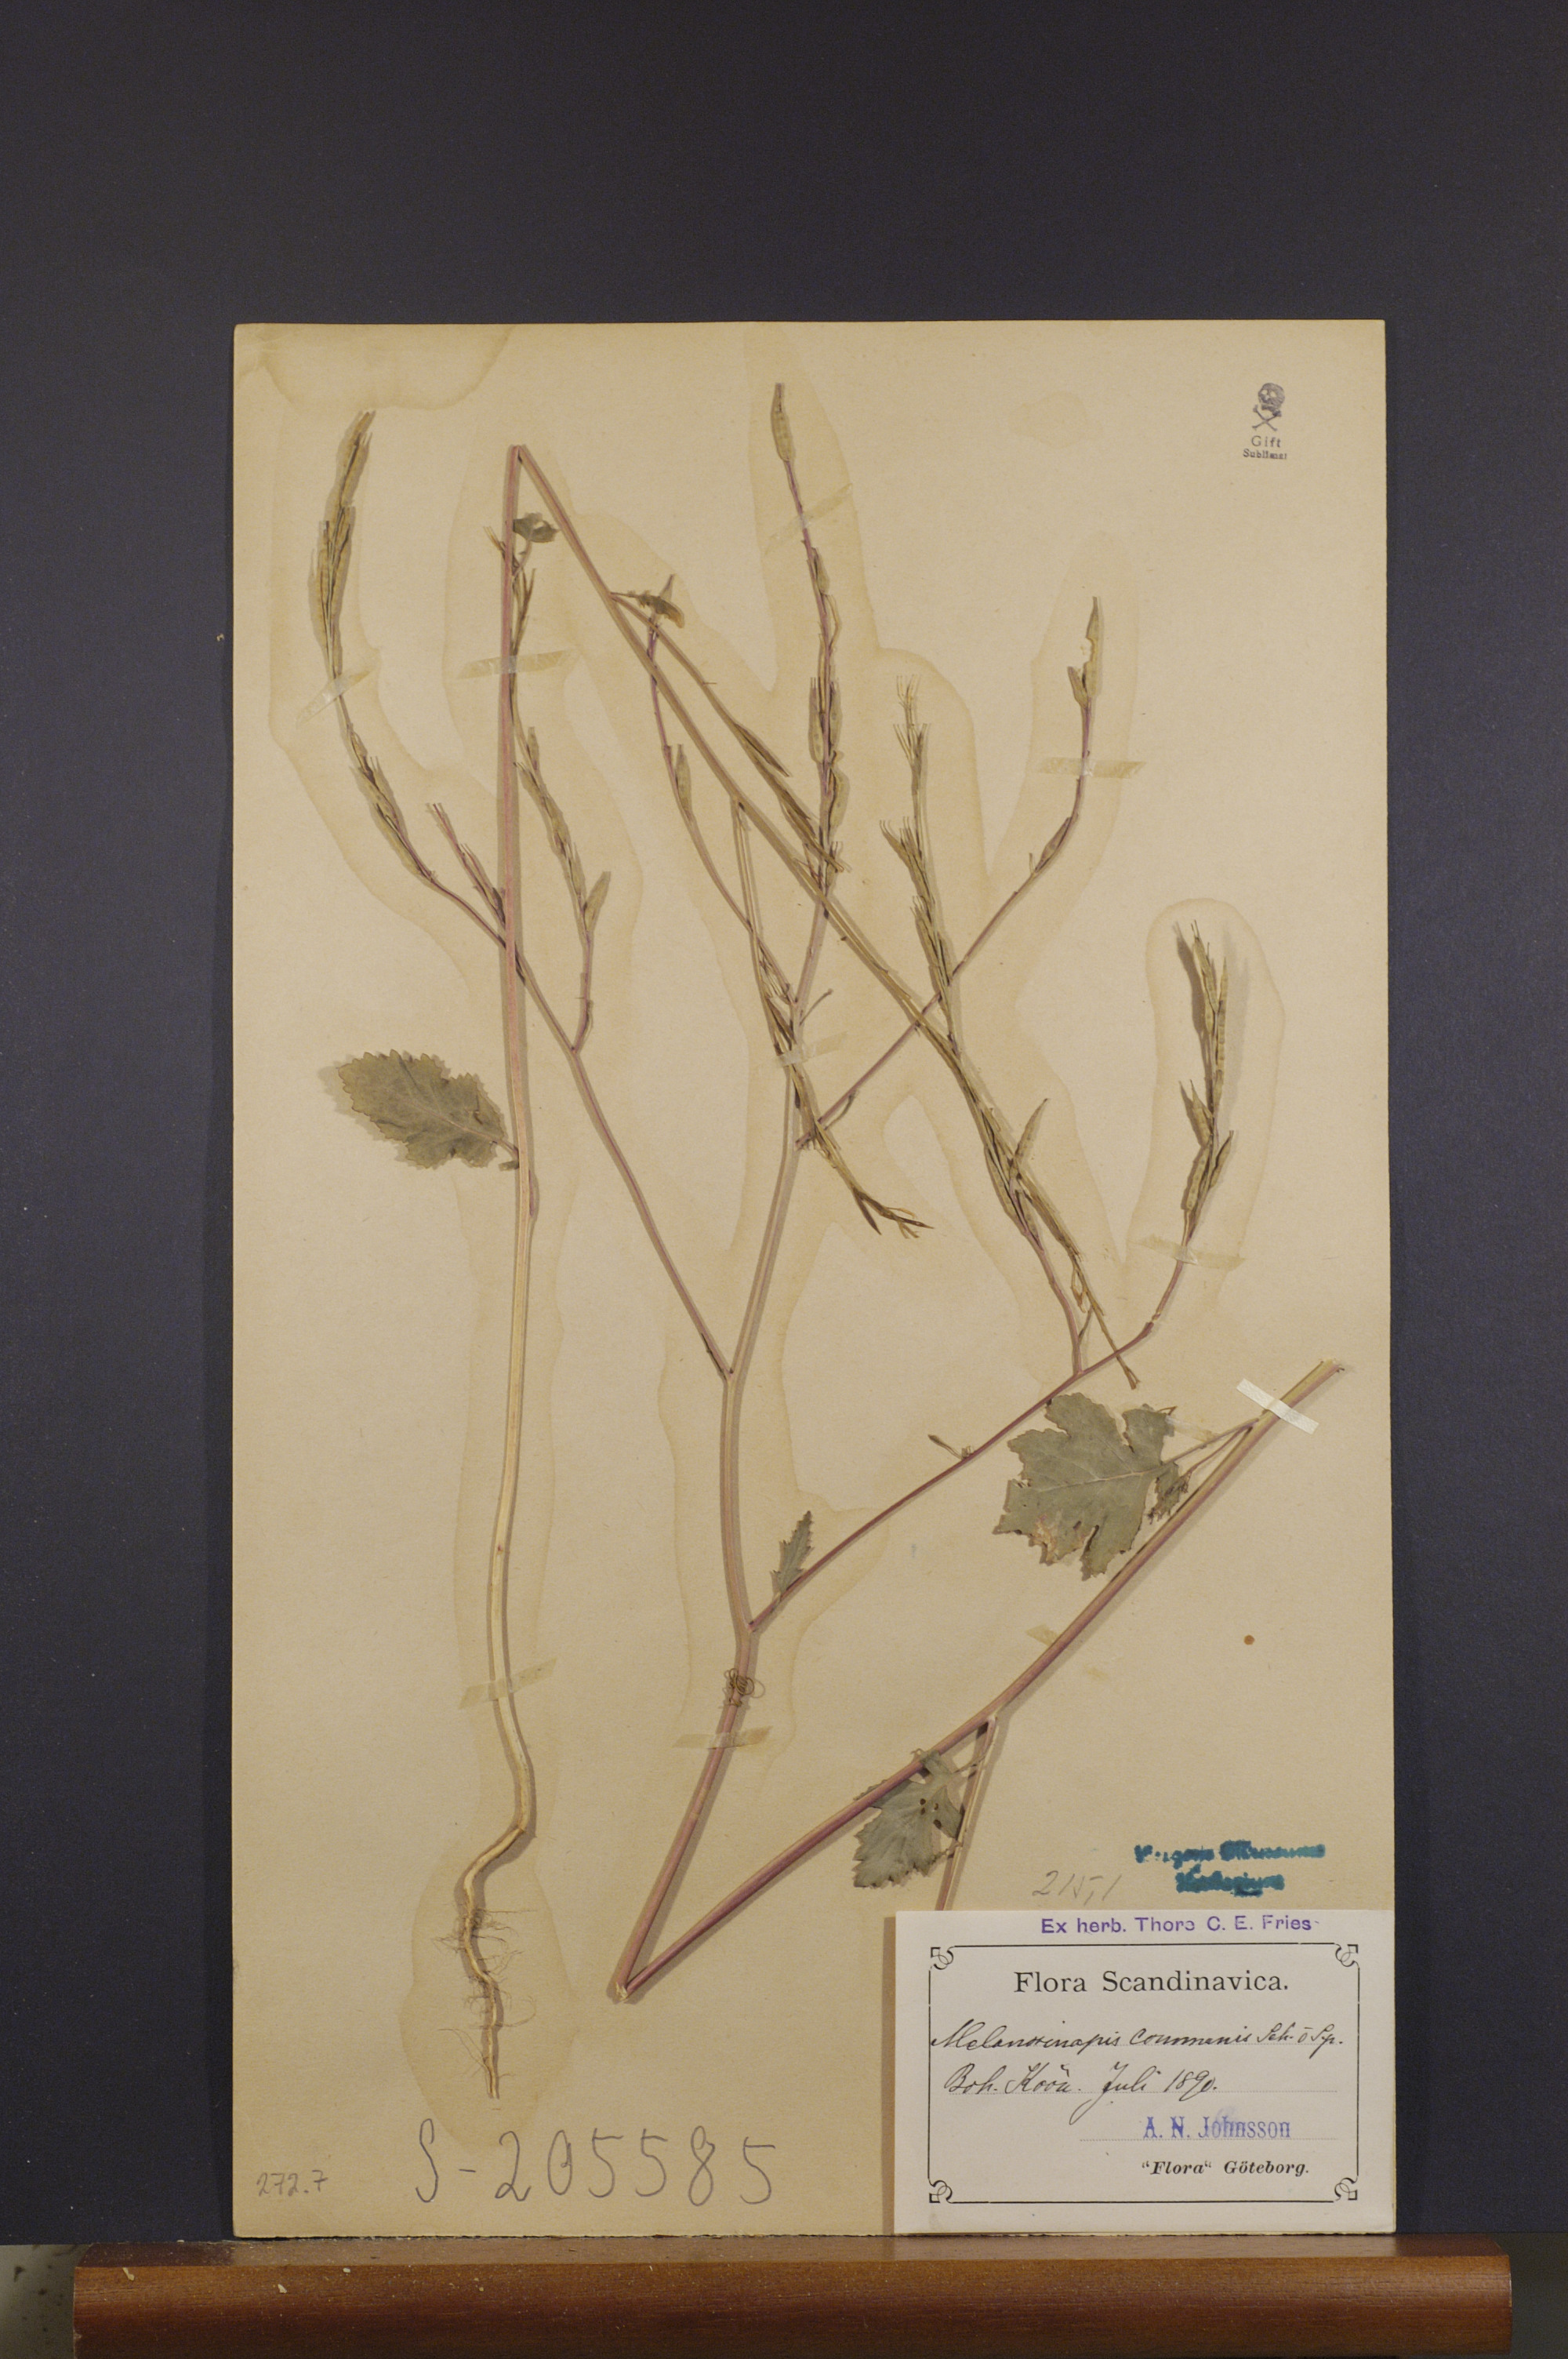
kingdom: Plantae
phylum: Tracheophyta
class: Magnoliopsida
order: Brassicales
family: Brassicaceae
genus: Brassica
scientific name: Brassica nigra
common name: Black mustard
